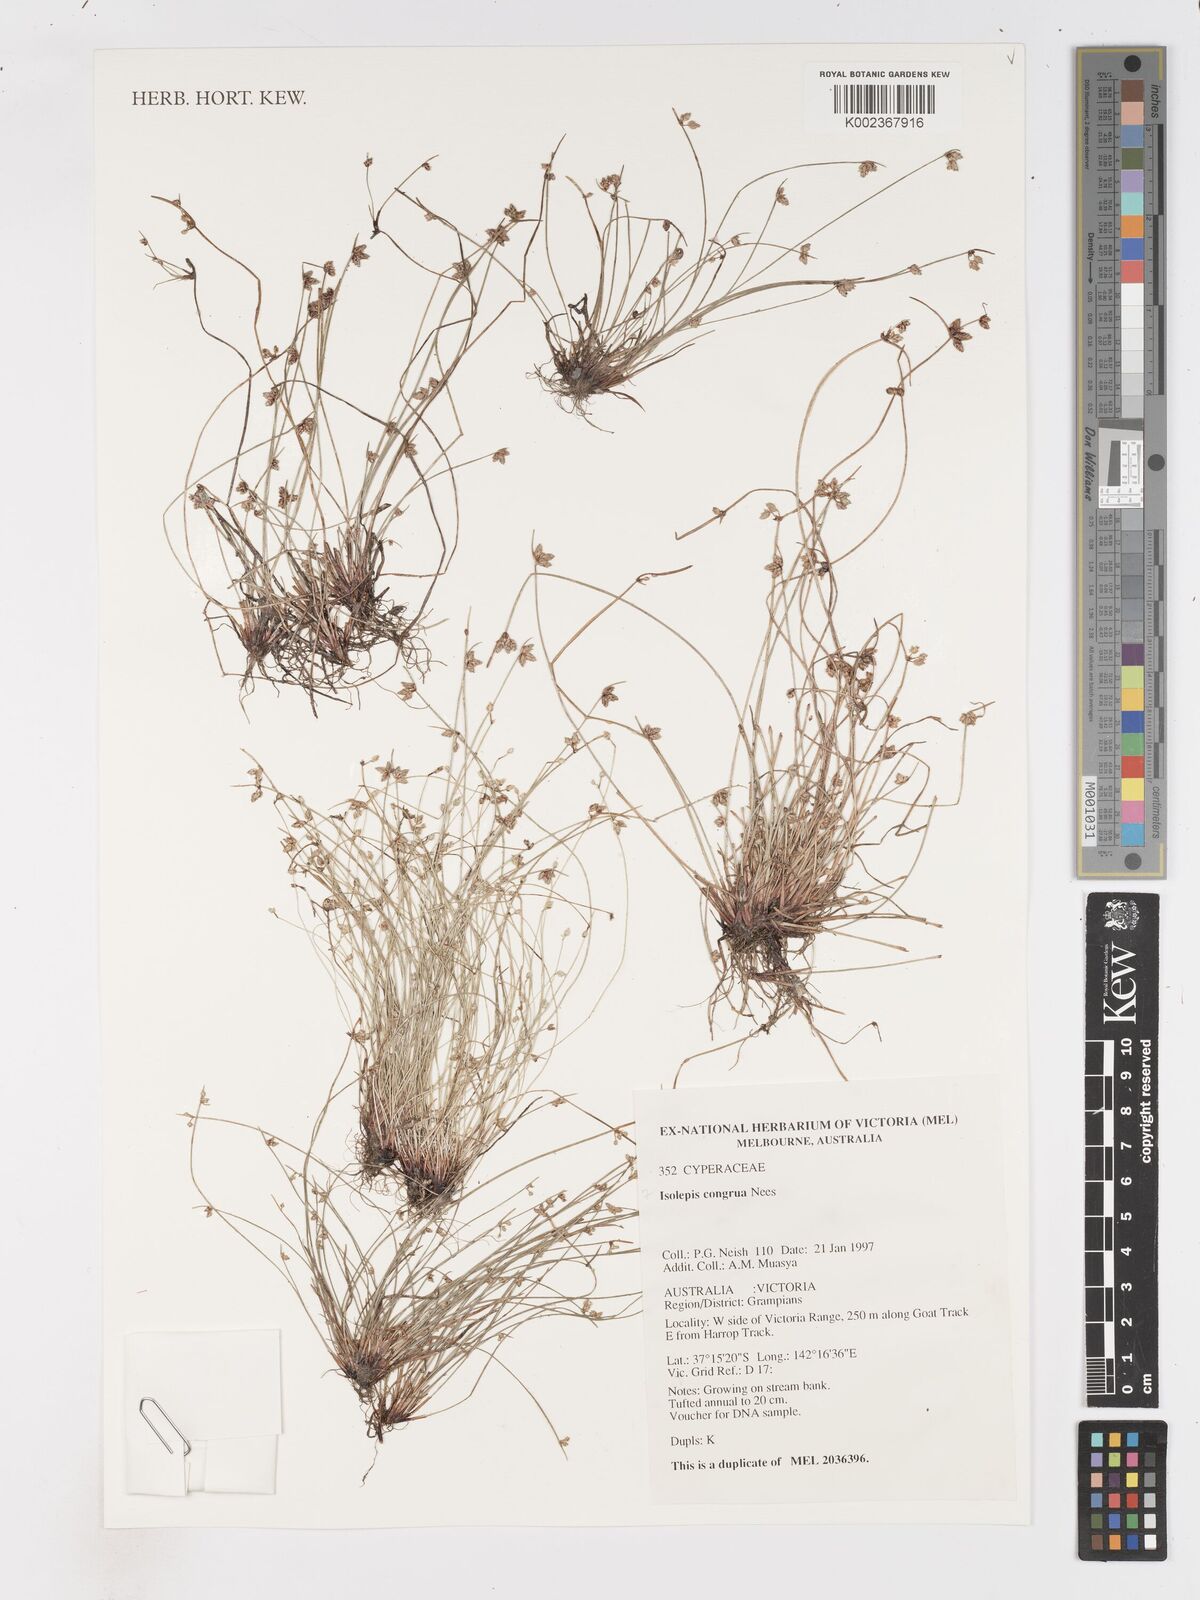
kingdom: Plantae
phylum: Tracheophyta
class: Liliopsida
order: Poales
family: Cyperaceae
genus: Isolepis
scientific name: Isolepis congrua
